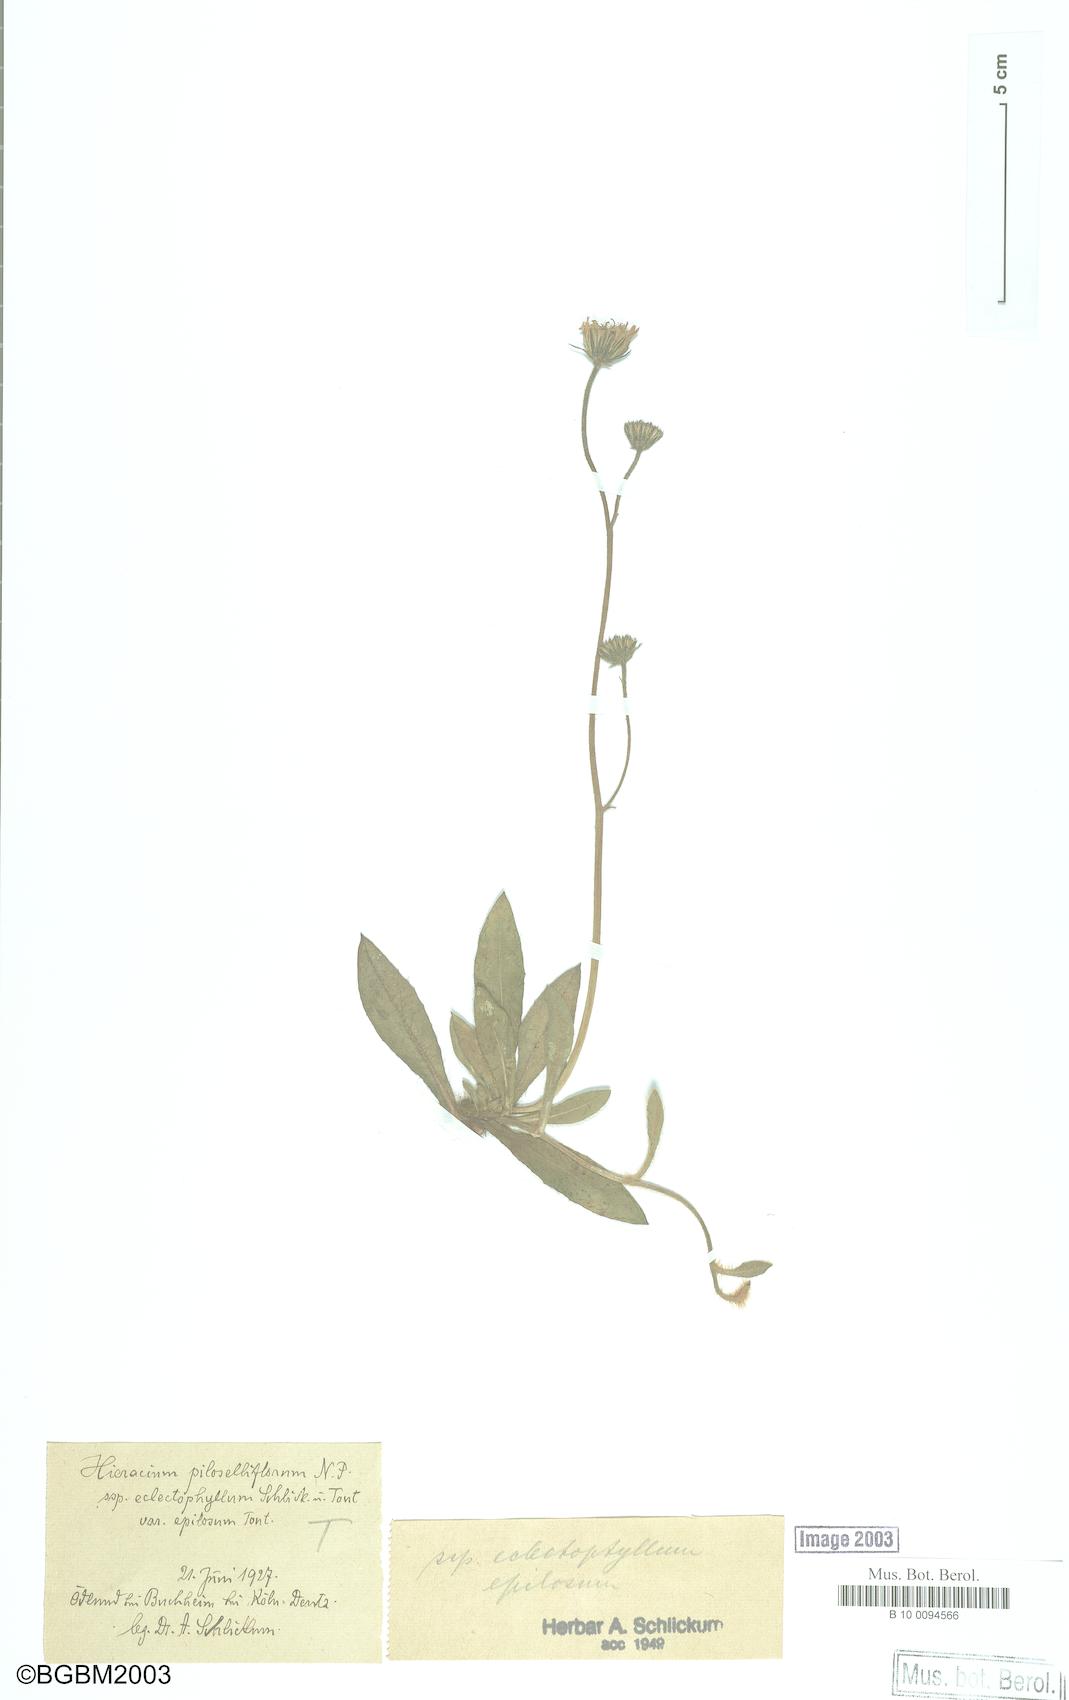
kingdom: Plantae
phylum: Tracheophyta
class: Magnoliopsida
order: Asterales
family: Asteraceae
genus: Pilosella
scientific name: Pilosella piloselliflora
